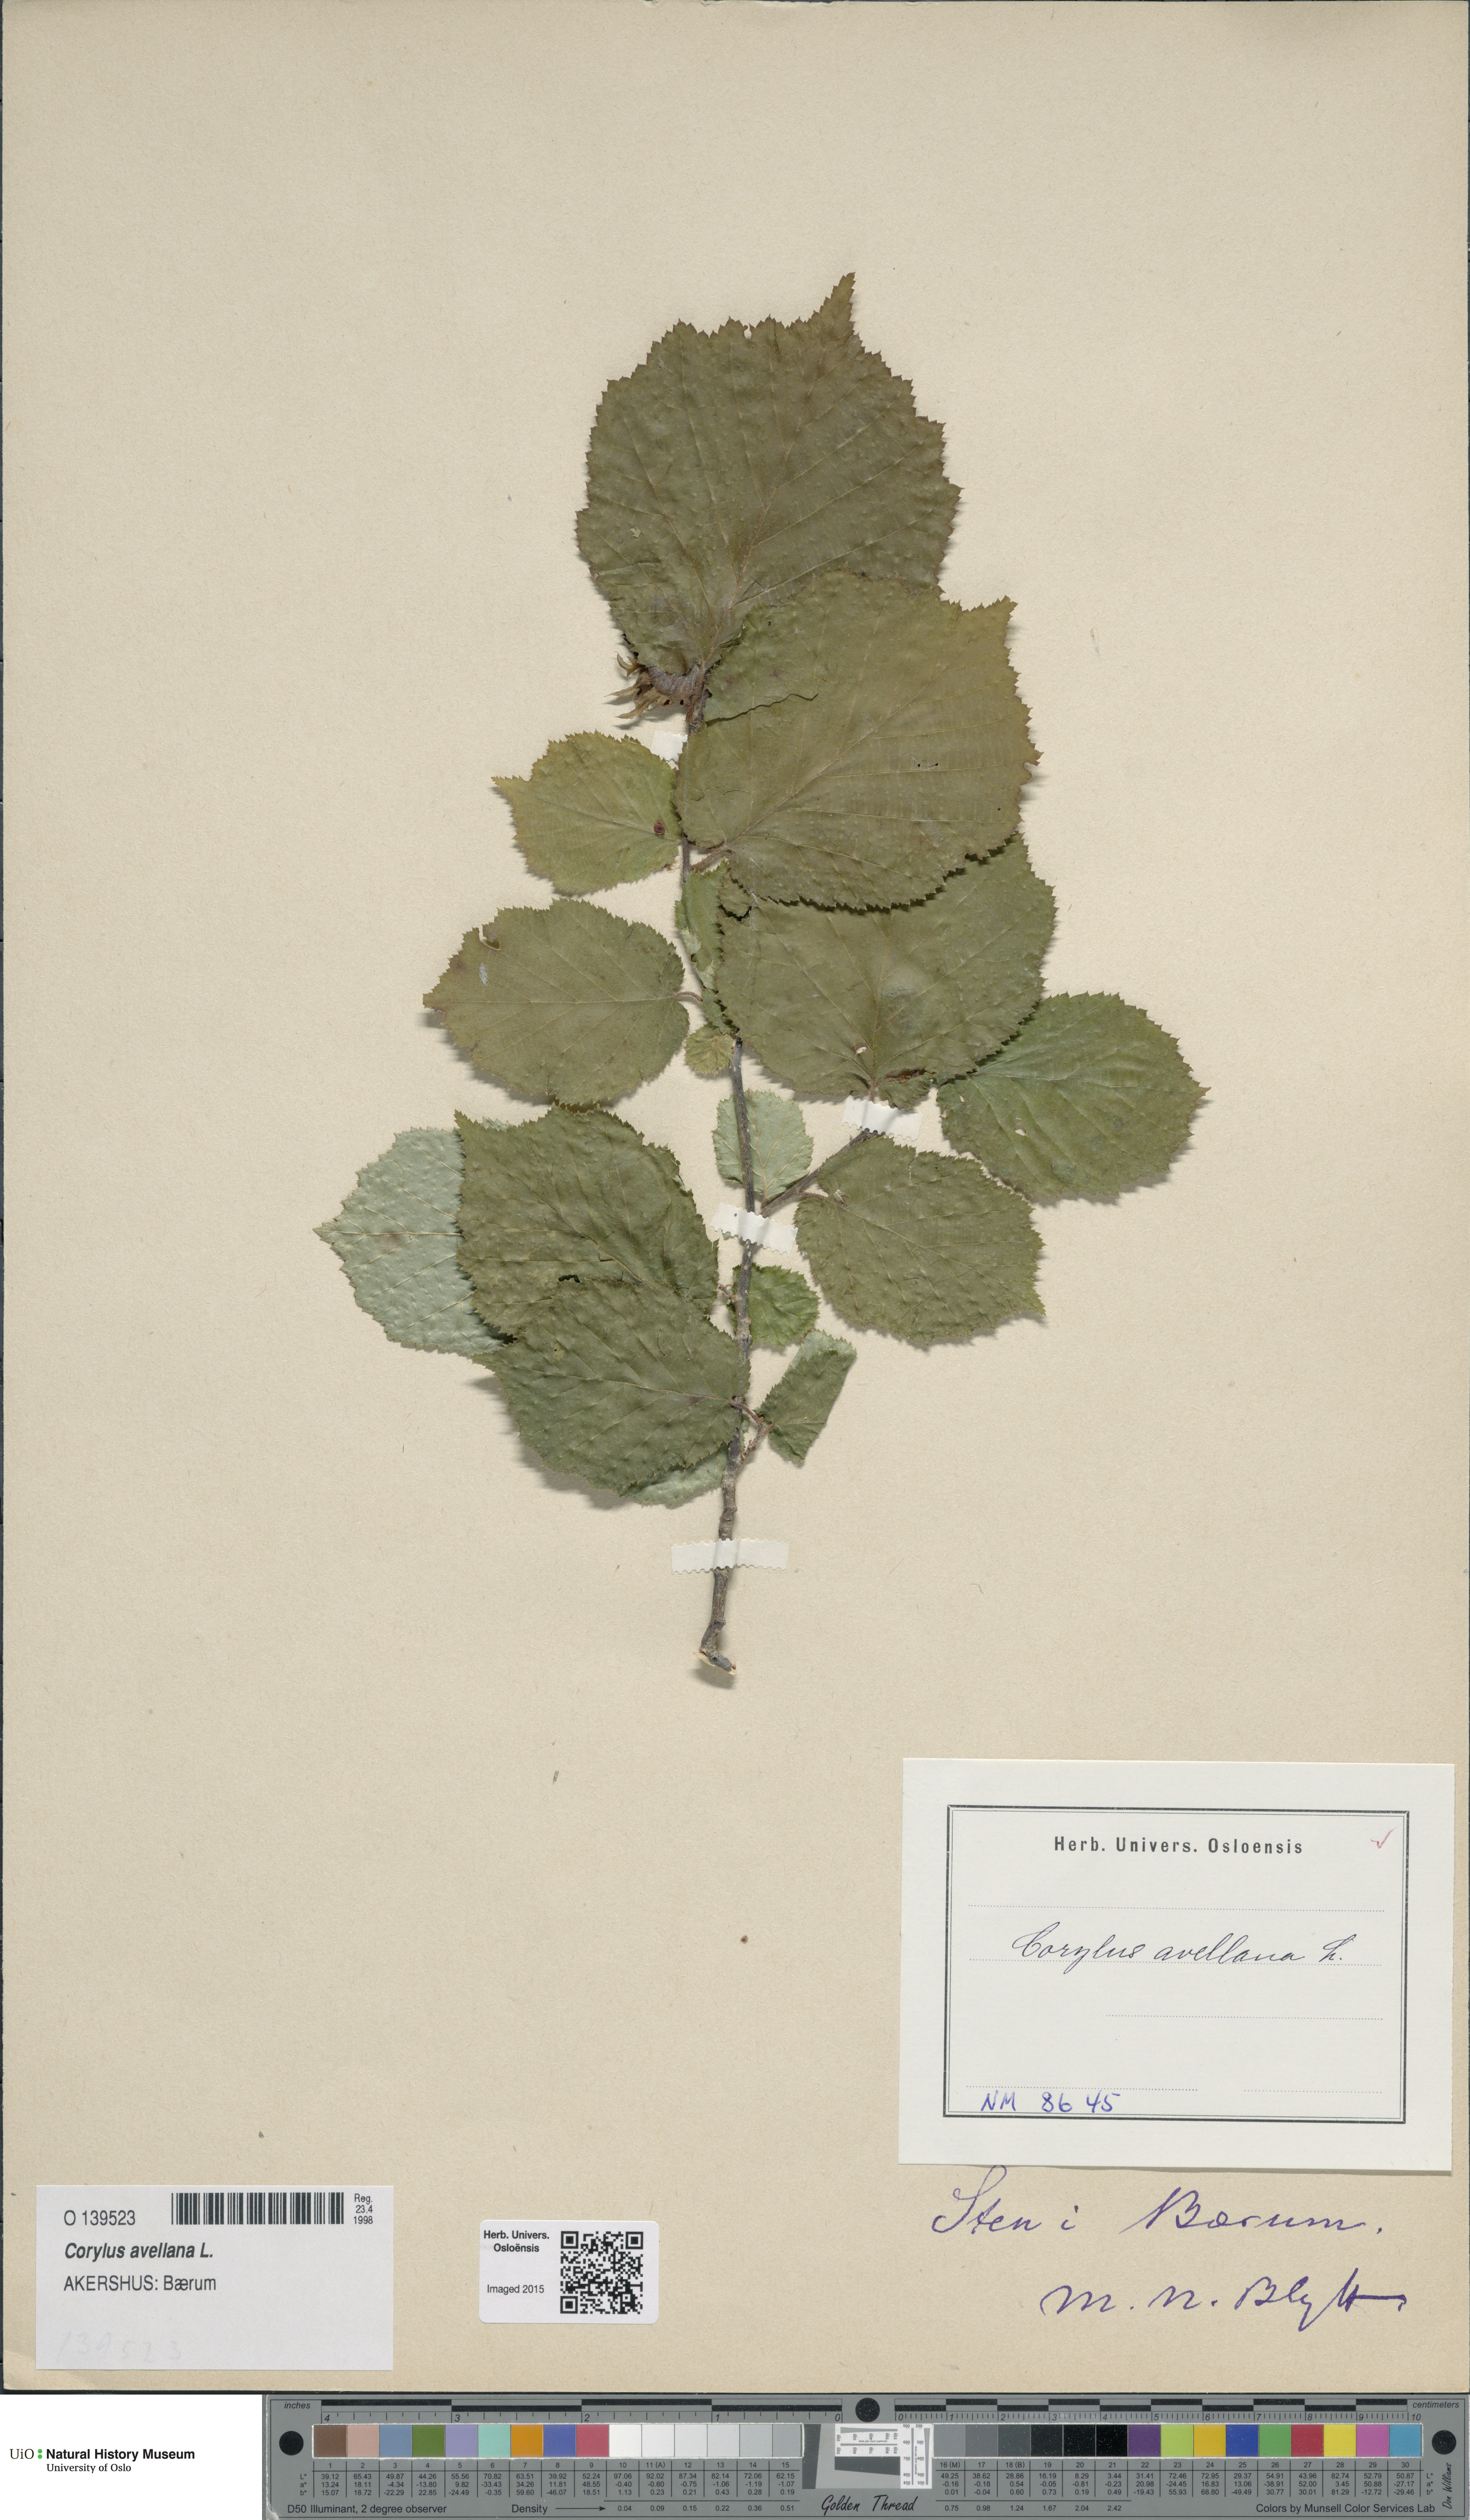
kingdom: Plantae
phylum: Tracheophyta
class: Magnoliopsida
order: Fagales
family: Betulaceae
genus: Corylus
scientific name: Corylus avellana
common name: European hazel
